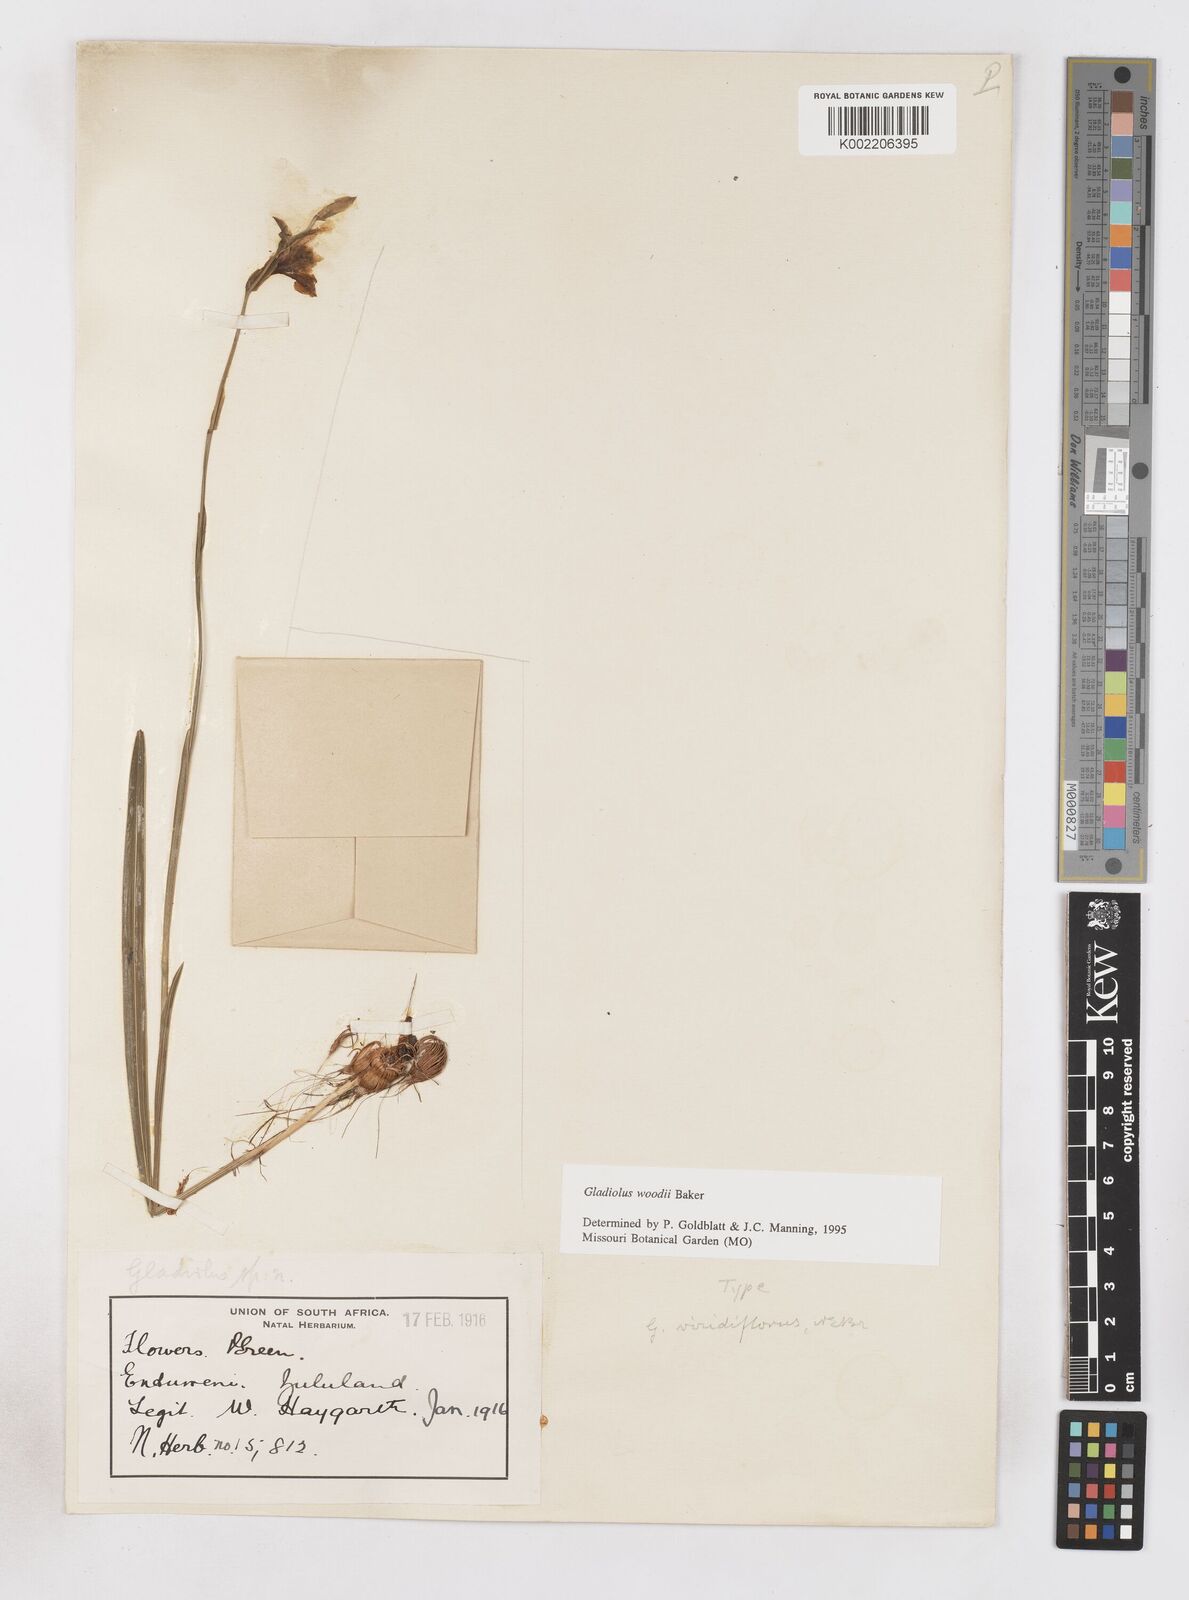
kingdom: Plantae
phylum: Tracheophyta
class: Liliopsida
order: Asparagales
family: Iridaceae
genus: Gladiolus
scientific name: Gladiolus woodii
